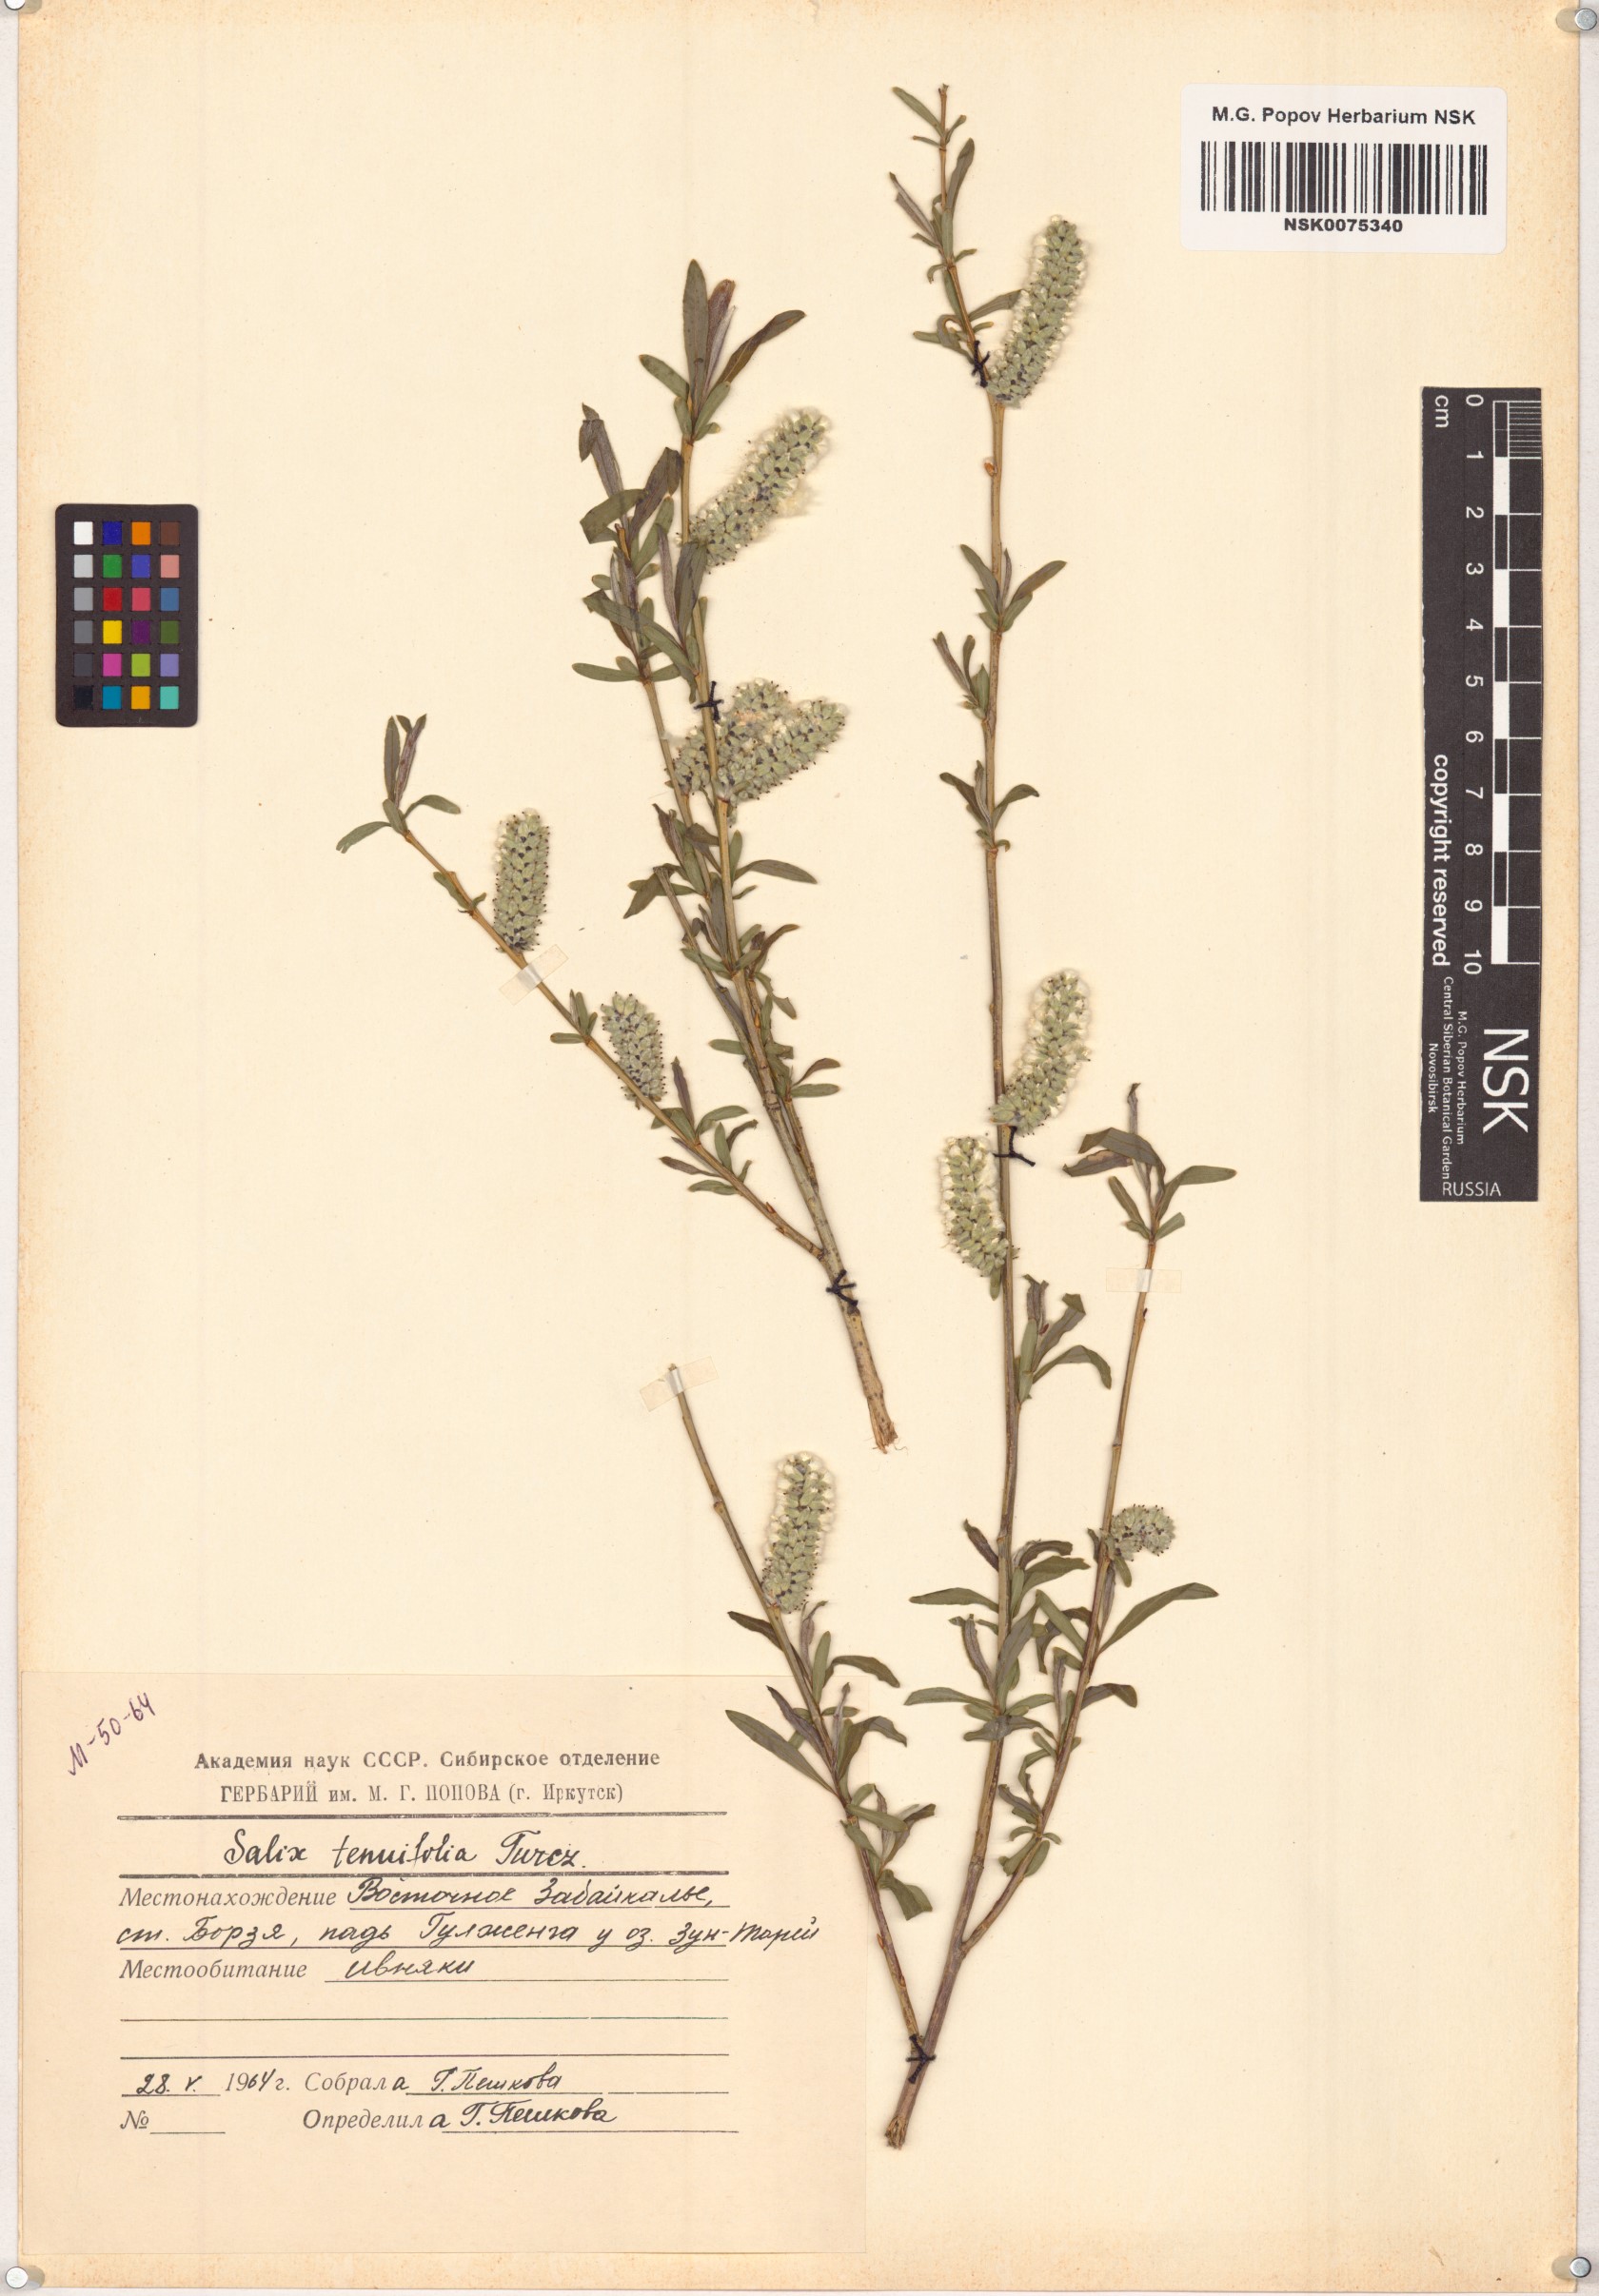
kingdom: Plantae
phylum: Tracheophyta
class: Magnoliopsida
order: Malpighiales
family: Salicaceae
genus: Salix
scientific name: Salix
